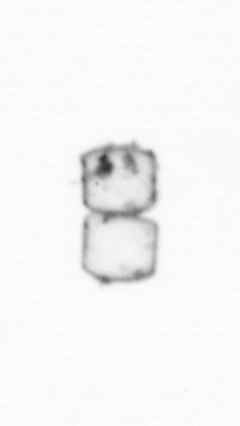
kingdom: Chromista
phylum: Ochrophyta
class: Bacillariophyceae
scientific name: Bacillariophyceae
